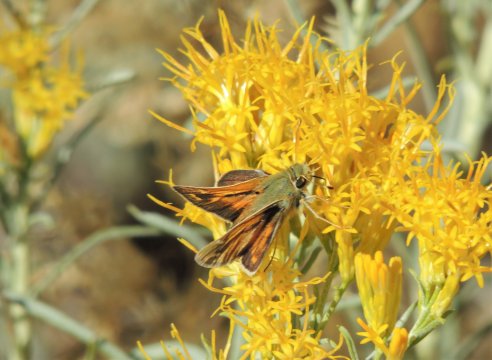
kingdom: Animalia
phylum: Arthropoda
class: Insecta
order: Lepidoptera
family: Hesperiidae
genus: Ochlodes
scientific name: Ochlodes sylvanoides
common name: Woodland Skipper
